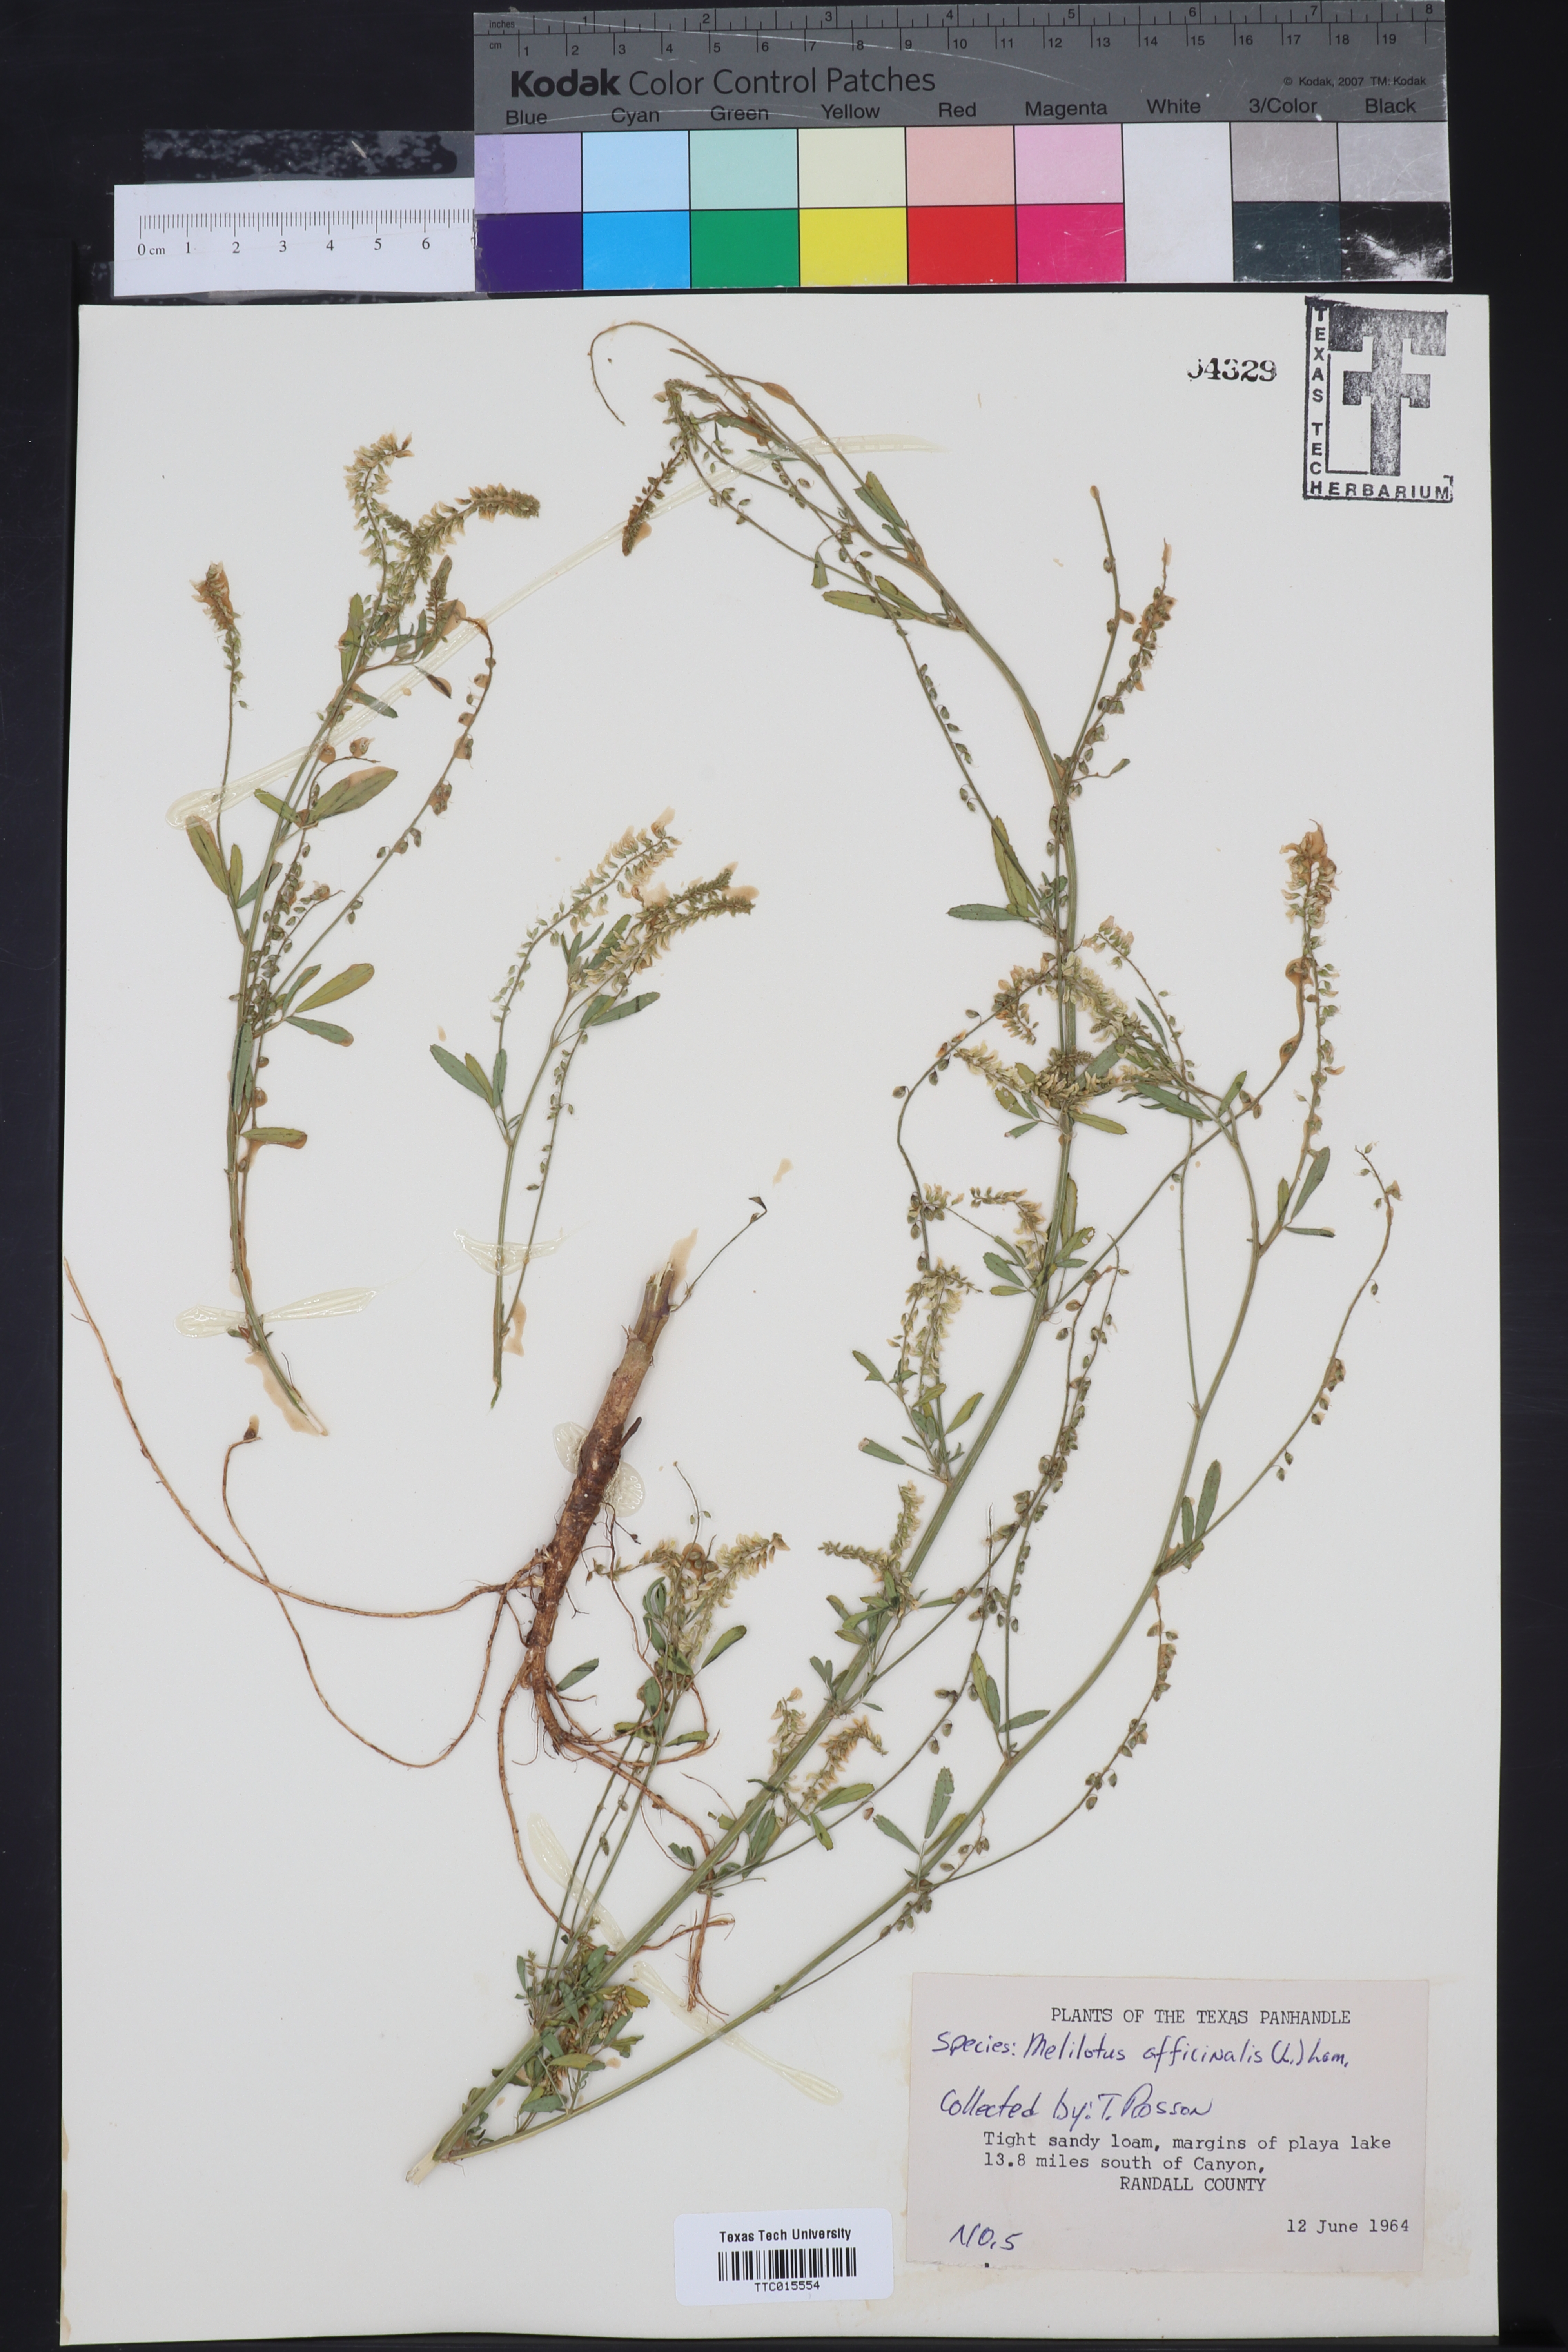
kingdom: Plantae
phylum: Tracheophyta
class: Magnoliopsida
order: Fabales
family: Fabaceae
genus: Melilotus
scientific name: Melilotus officinalis
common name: Sweetclover
